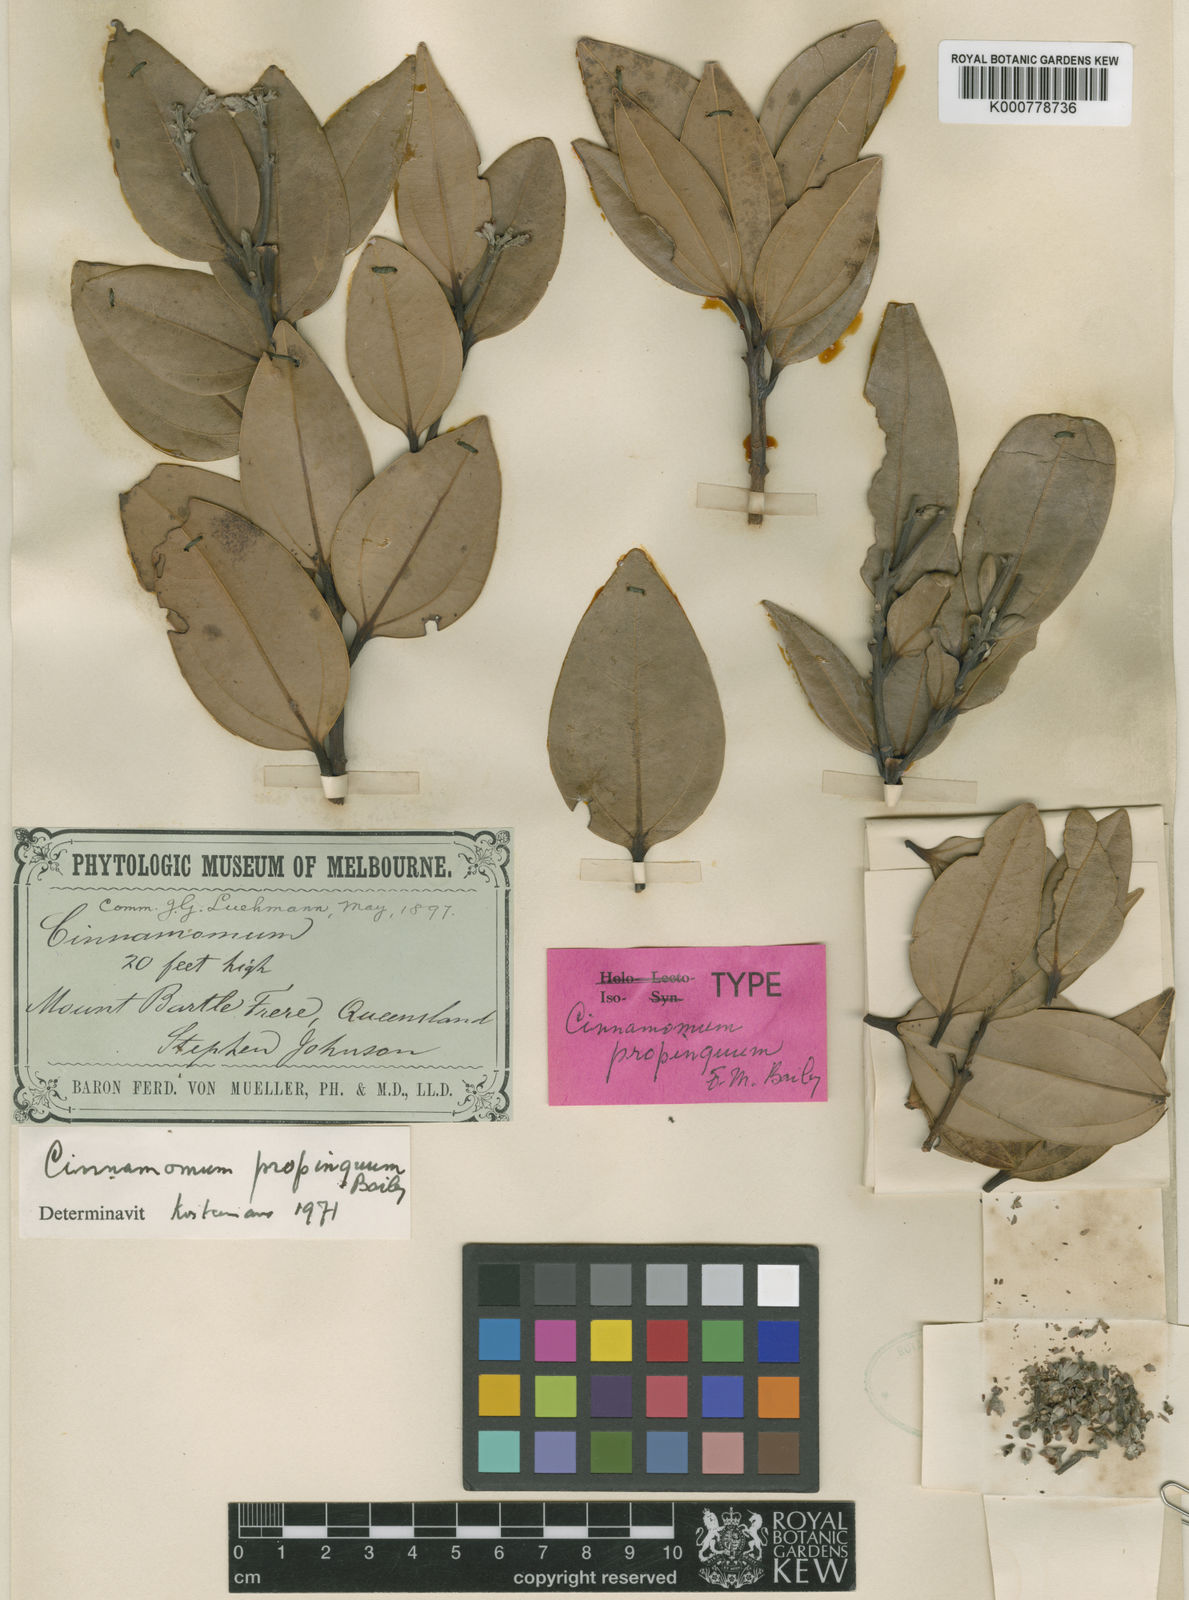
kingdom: Plantae
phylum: Tracheophyta
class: Magnoliopsida
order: Laurales
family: Lauraceae
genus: Cinnamomum
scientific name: Cinnamomum propinquum
